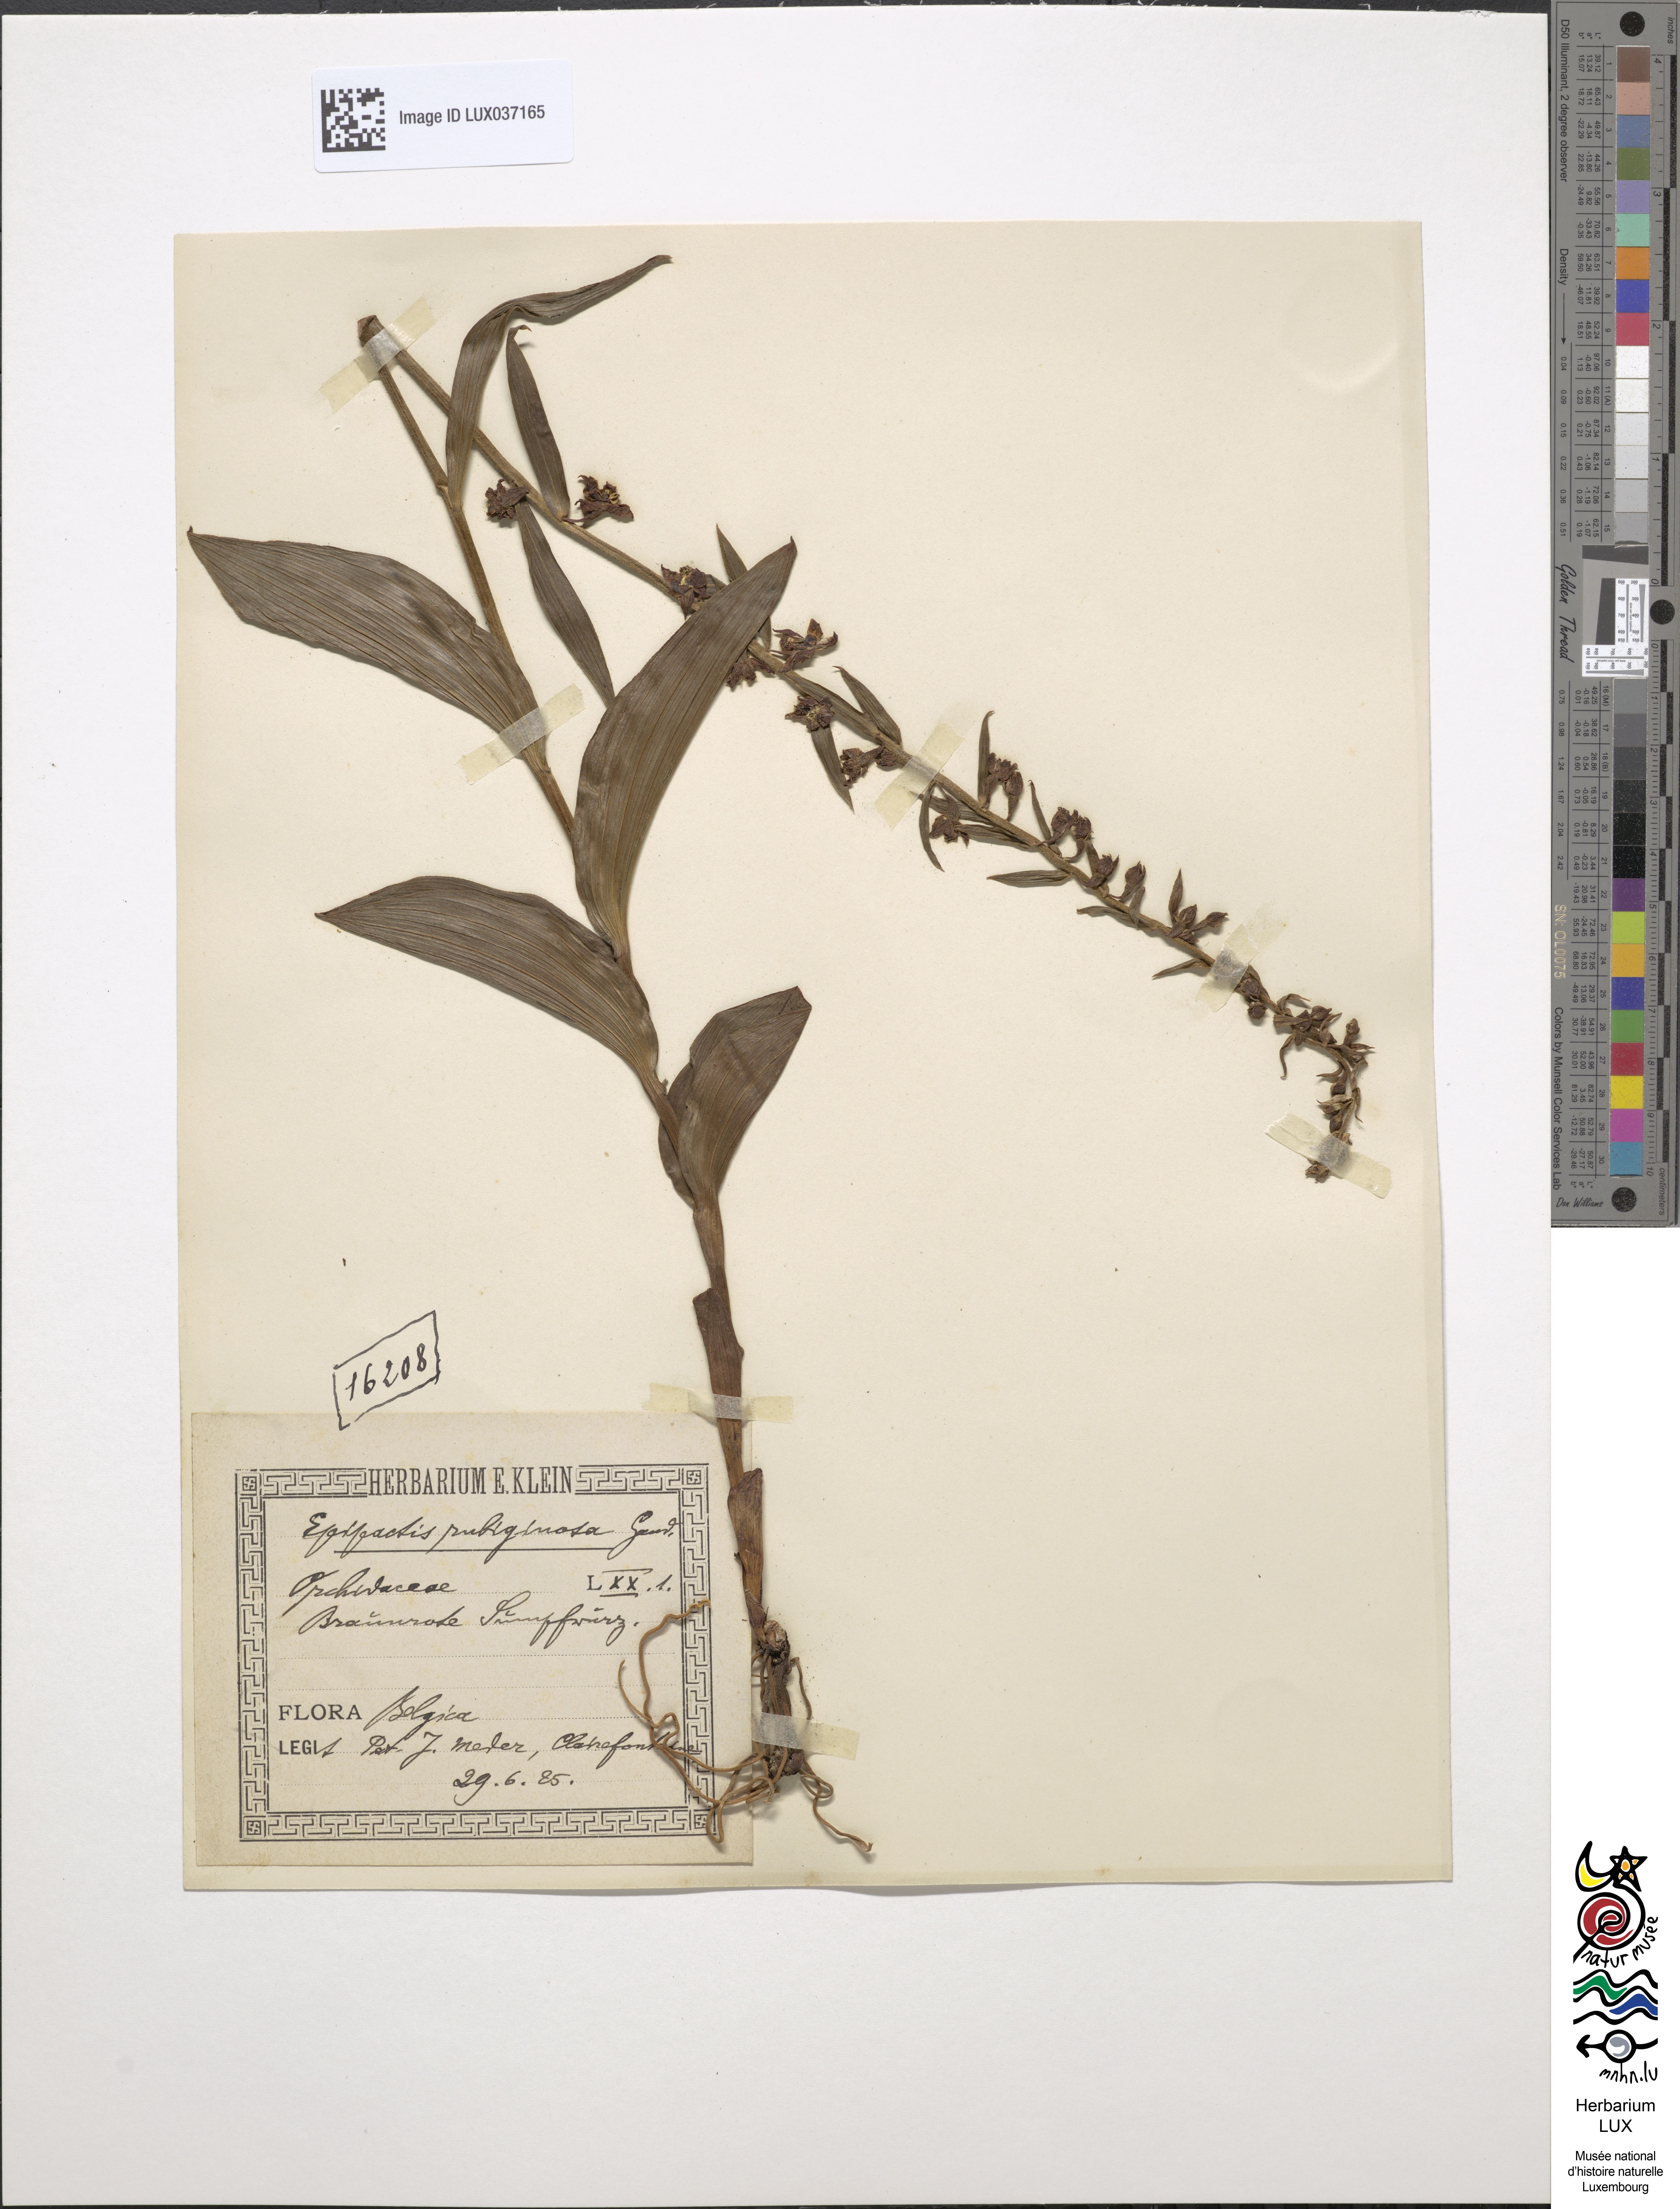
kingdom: Plantae
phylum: Tracheophyta
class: Liliopsida
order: Asparagales
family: Orchidaceae
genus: Epipactis
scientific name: Epipactis atrorubens
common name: Dark-red helleborine
